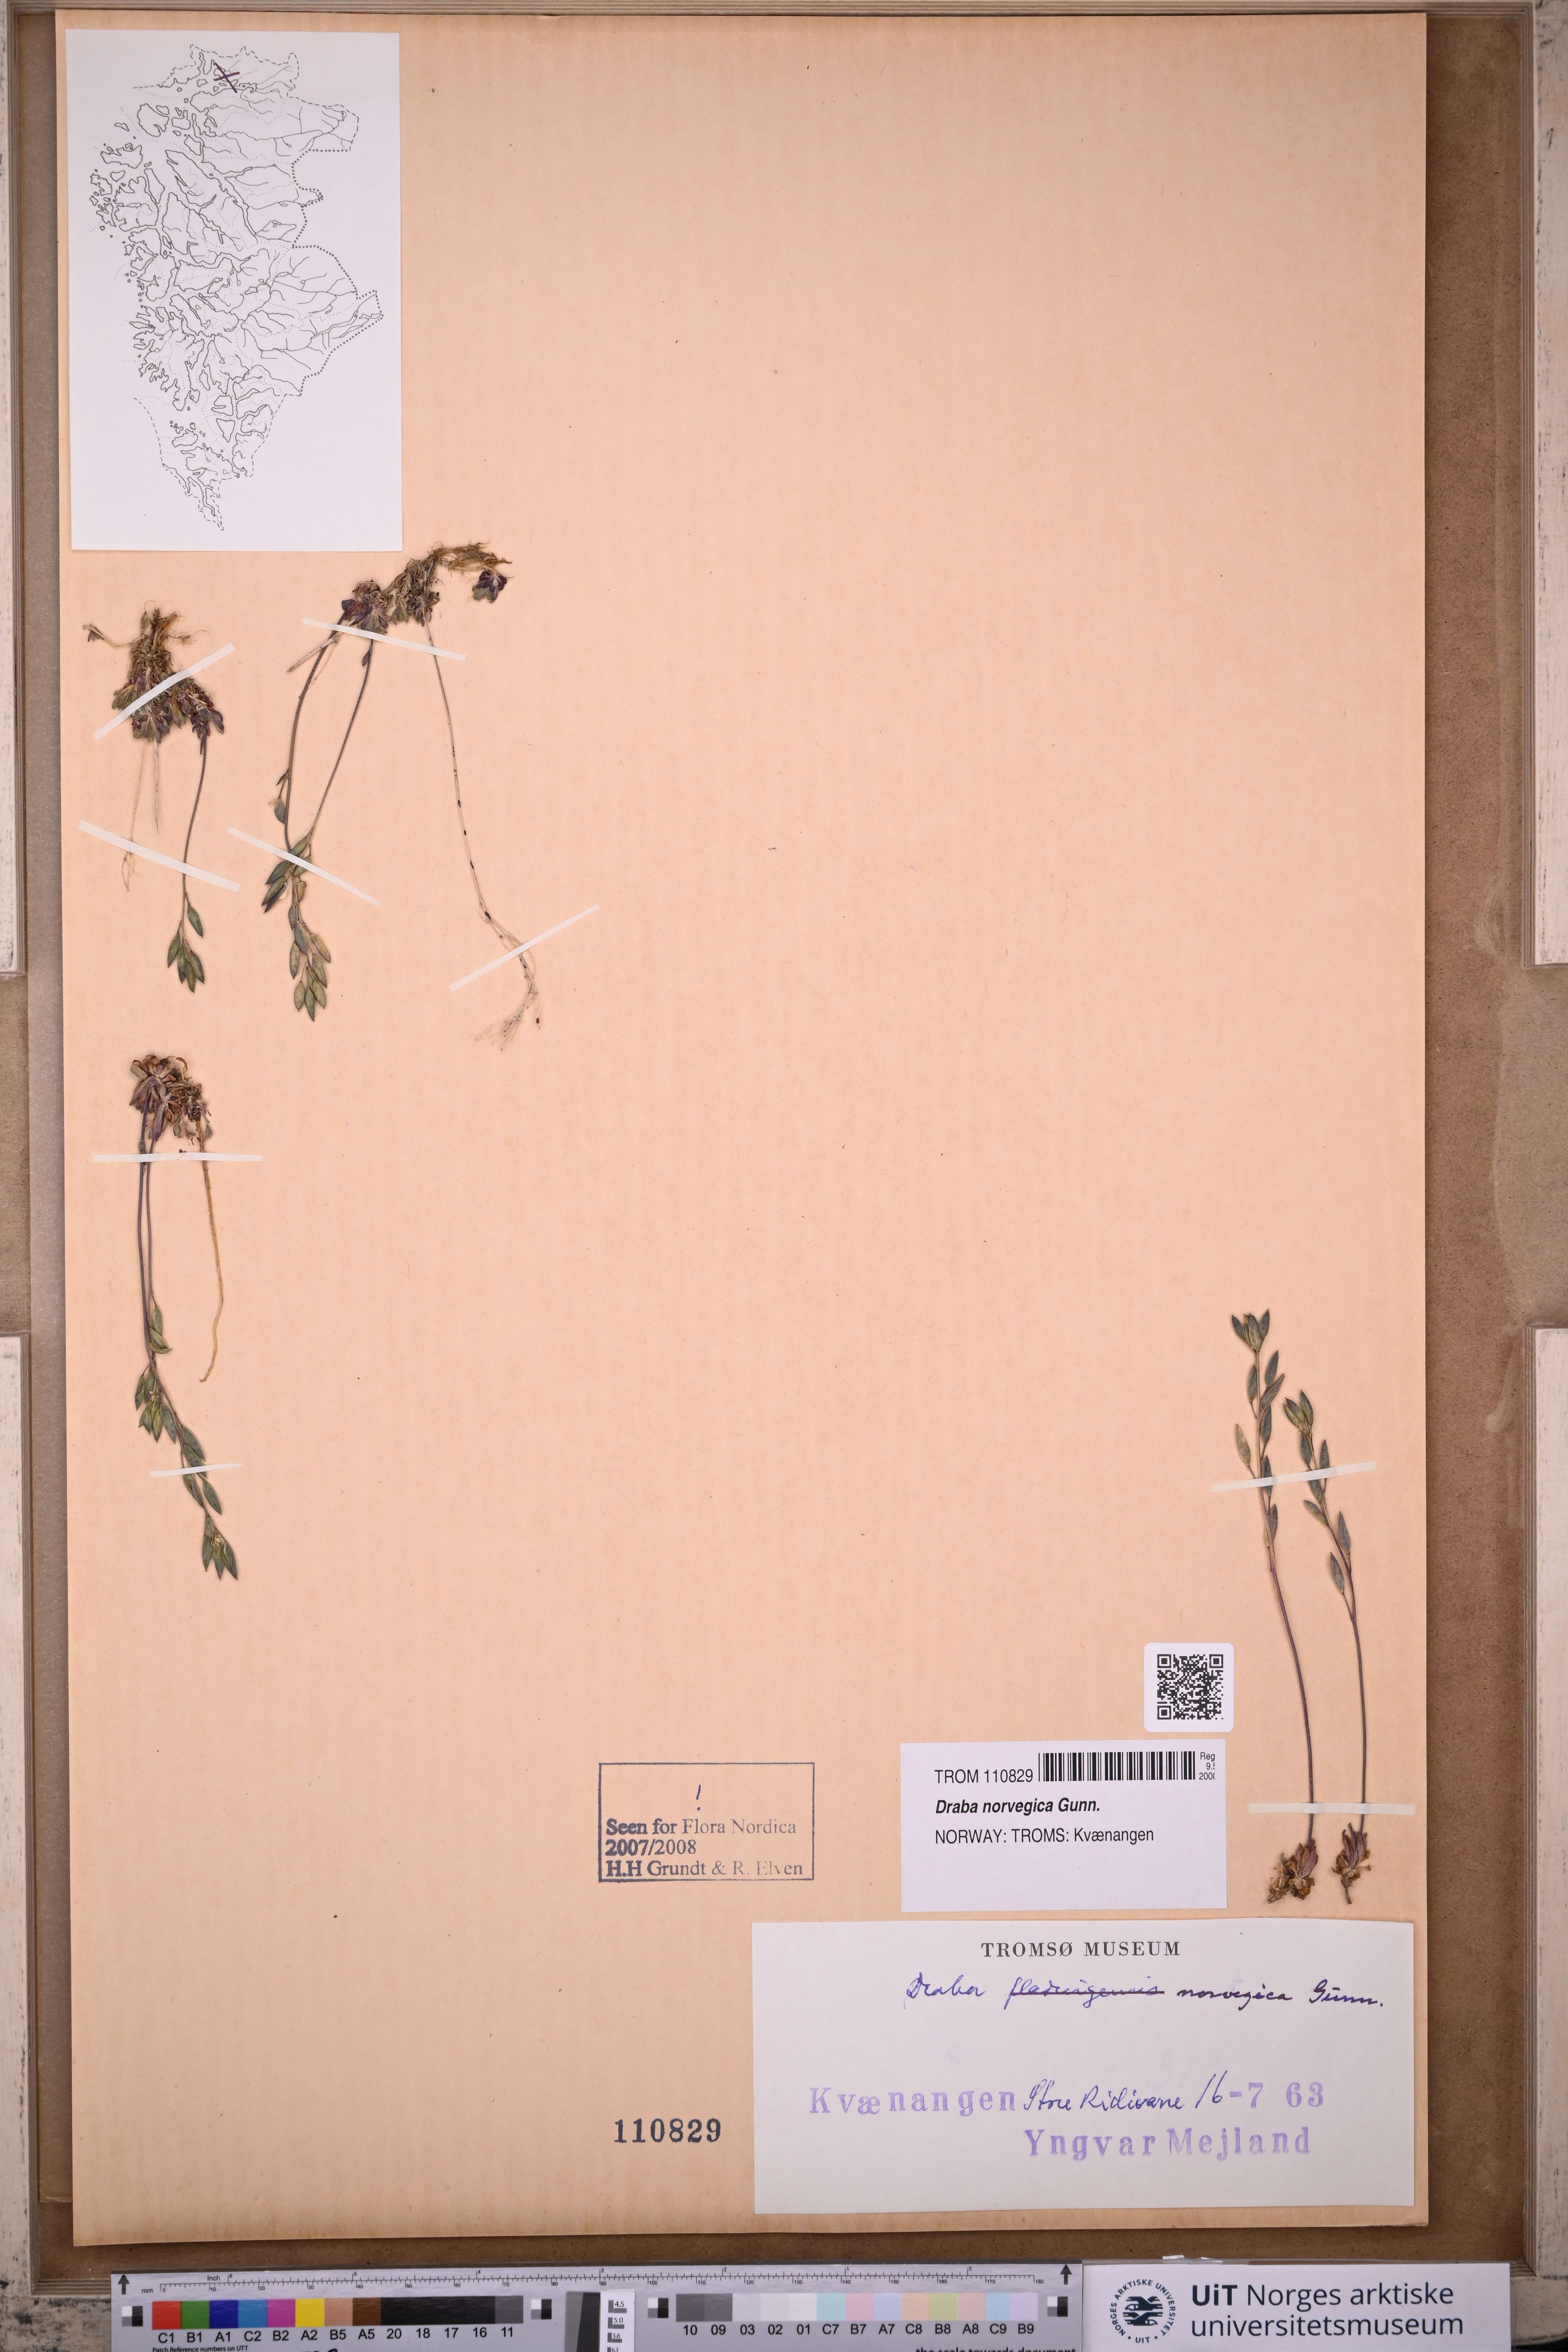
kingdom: Plantae
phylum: Tracheophyta
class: Magnoliopsida
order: Brassicales
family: Brassicaceae
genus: Draba
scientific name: Draba norvegica
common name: Rock whitlowgrass
